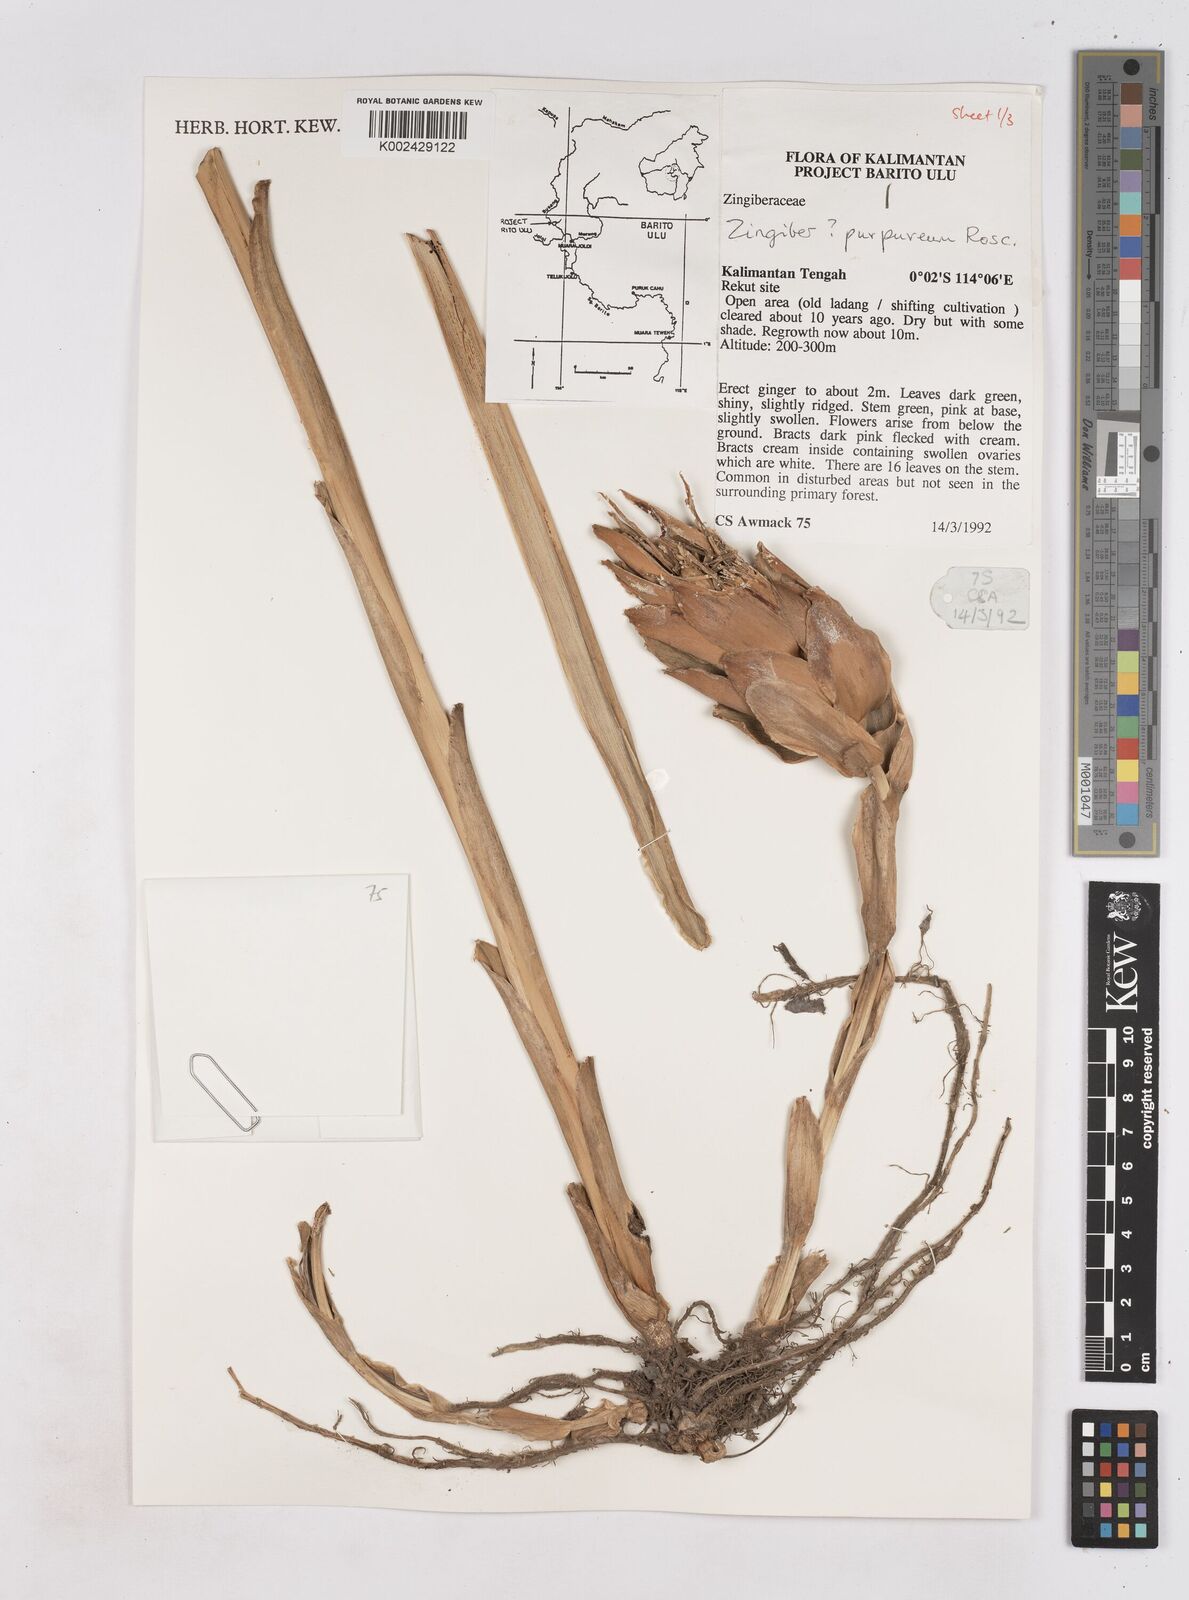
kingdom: Plantae
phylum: Tracheophyta
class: Liliopsida
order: Zingiberales
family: Zingiberaceae
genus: Zingiber
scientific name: Zingiber montanum
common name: Bengal ginger
